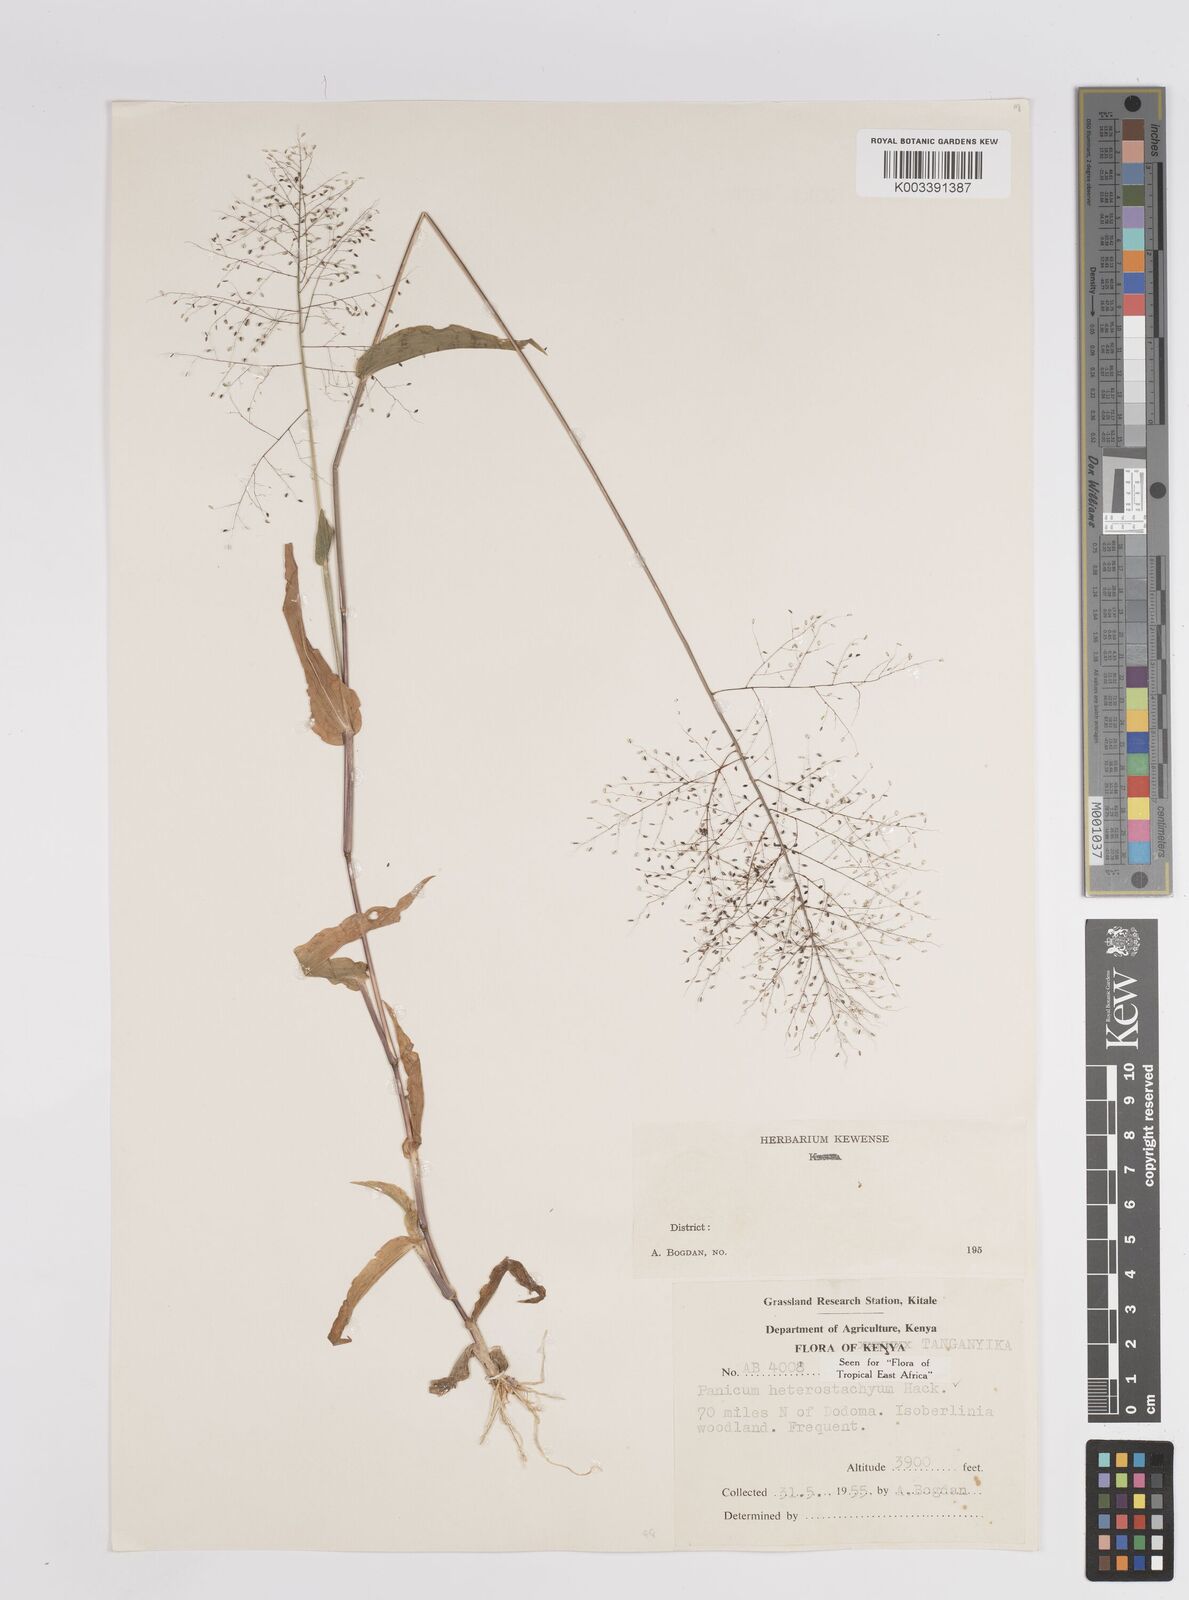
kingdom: Plantae
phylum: Tracheophyta
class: Liliopsida
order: Poales
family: Poaceae
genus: Panicum
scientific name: Panicum hirtum
